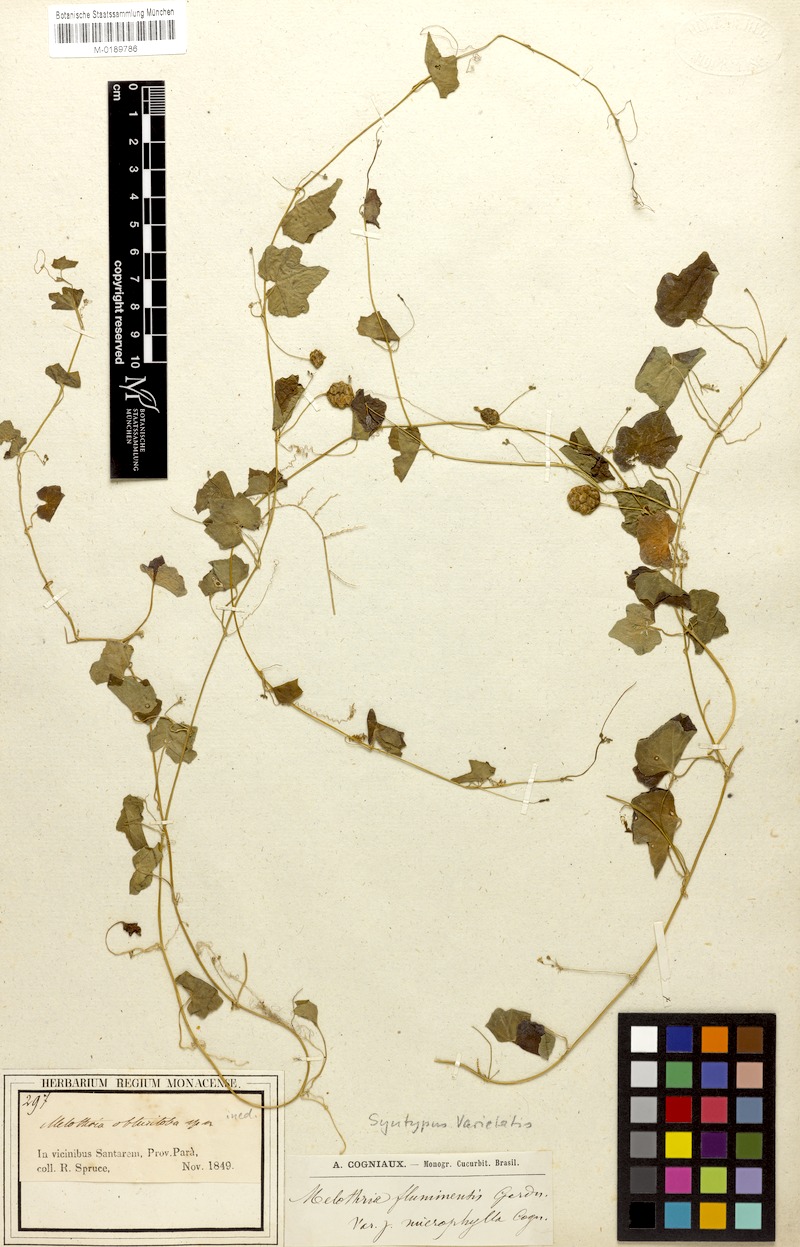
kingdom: Plantae
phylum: Tracheophyta
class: Magnoliopsida
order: Cucurbitales
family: Cucurbitaceae
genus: Melothria
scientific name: Melothria pendula
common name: Creeping-cucumber
